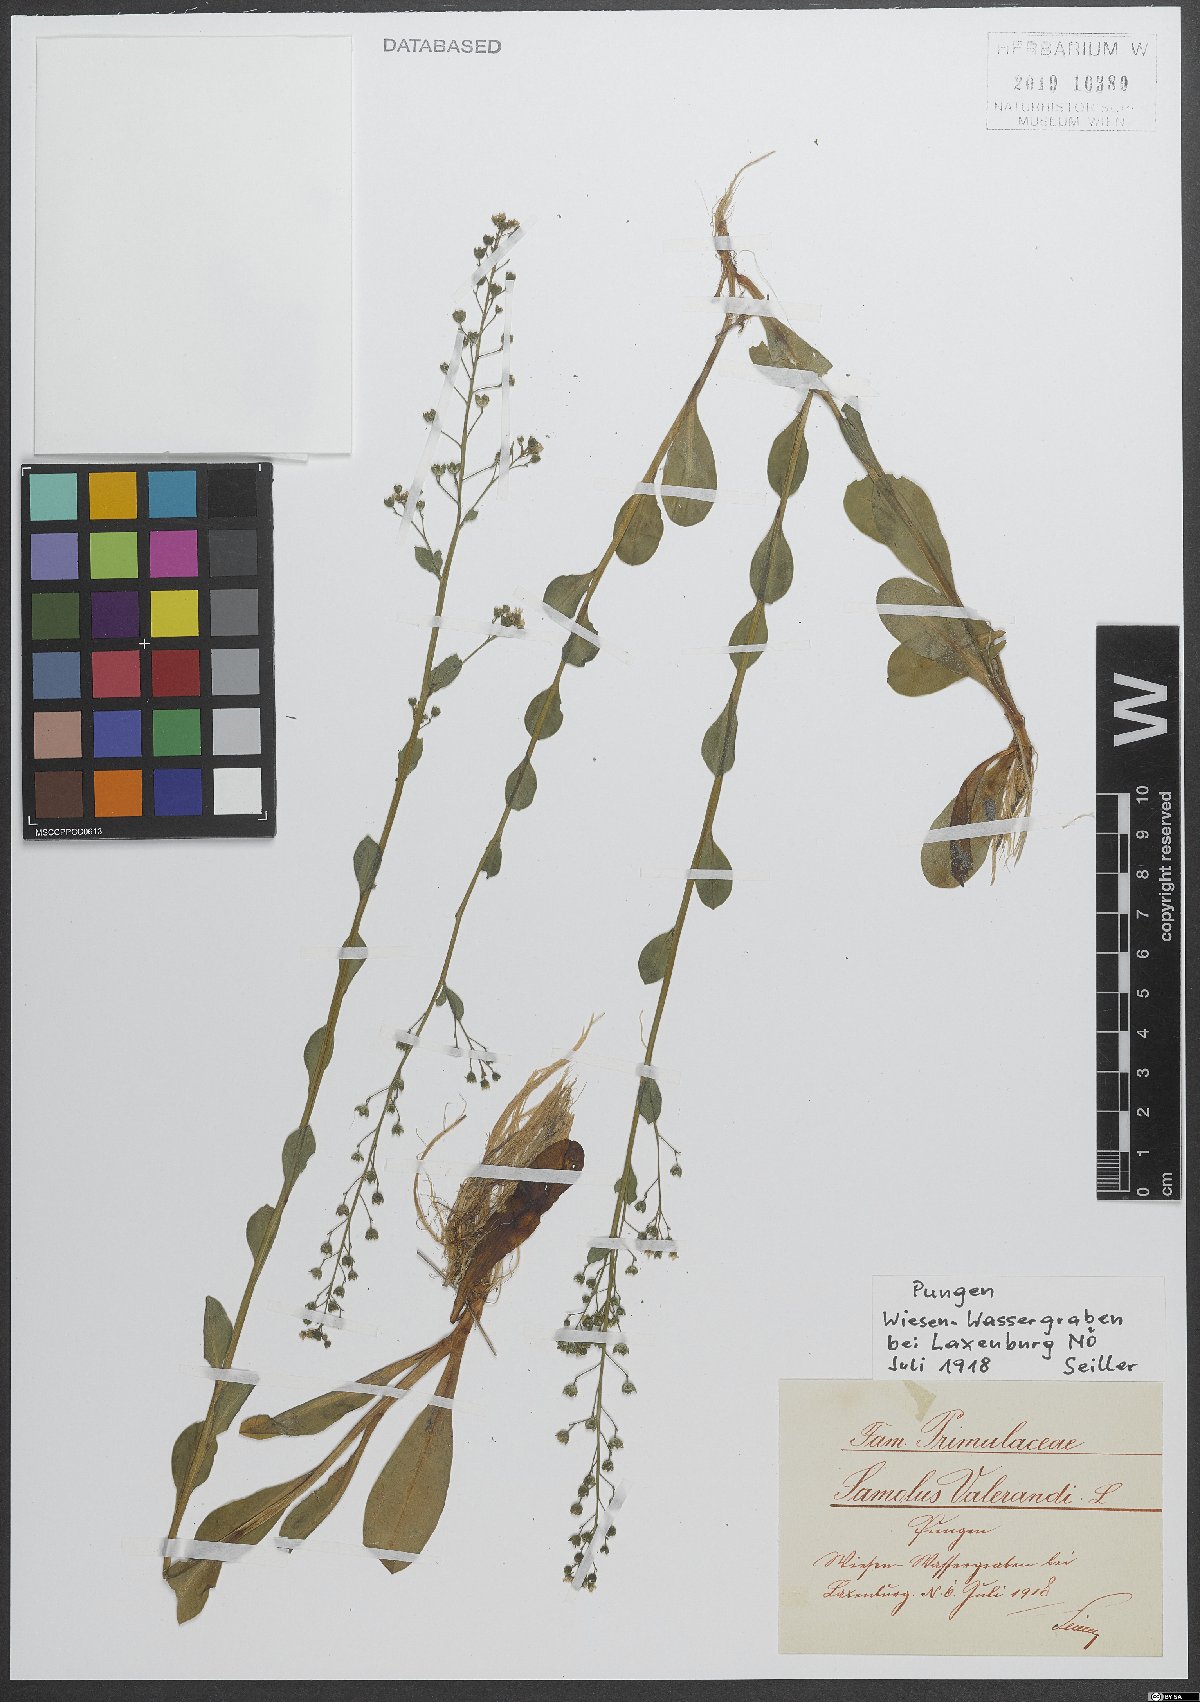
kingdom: Plantae
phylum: Tracheophyta
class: Magnoliopsida
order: Ericales
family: Primulaceae
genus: Samolus
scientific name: Samolus valerandi
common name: Brookweed
